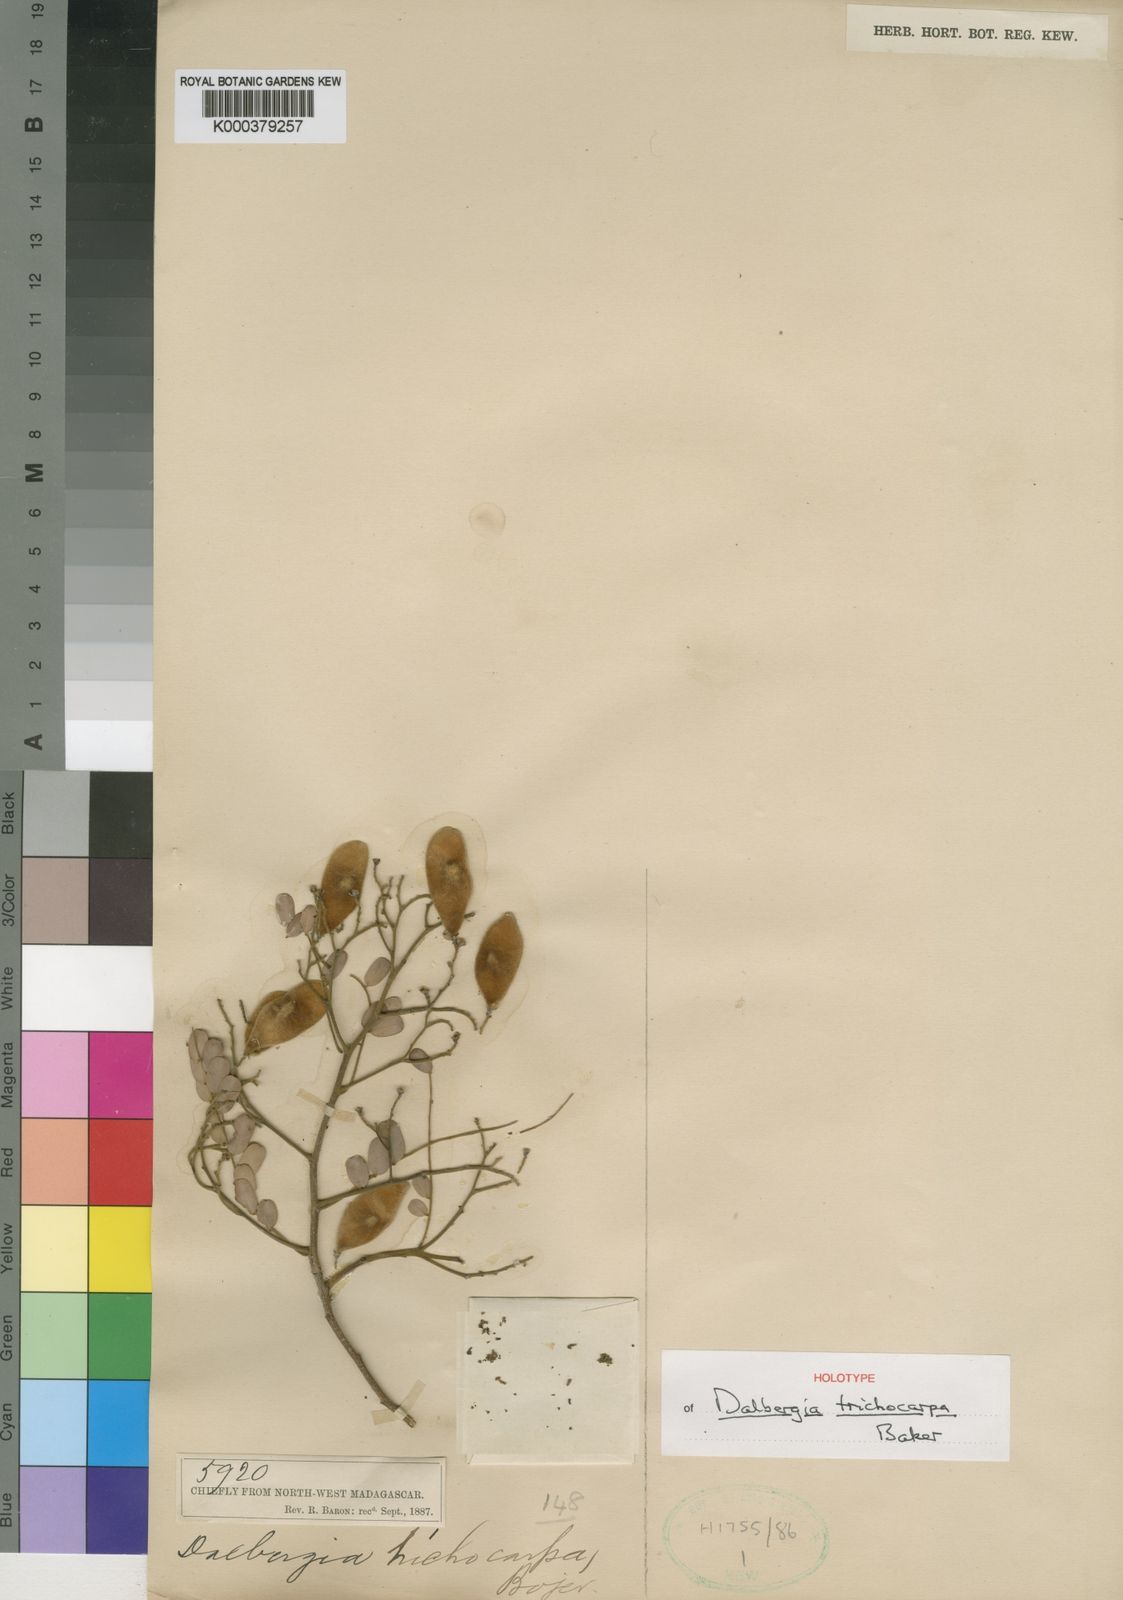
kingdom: Plantae
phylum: Tracheophyta
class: Magnoliopsida
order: Fabales
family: Fabaceae
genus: Dalbergia
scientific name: Dalbergia trichocarpa
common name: Rosewood
